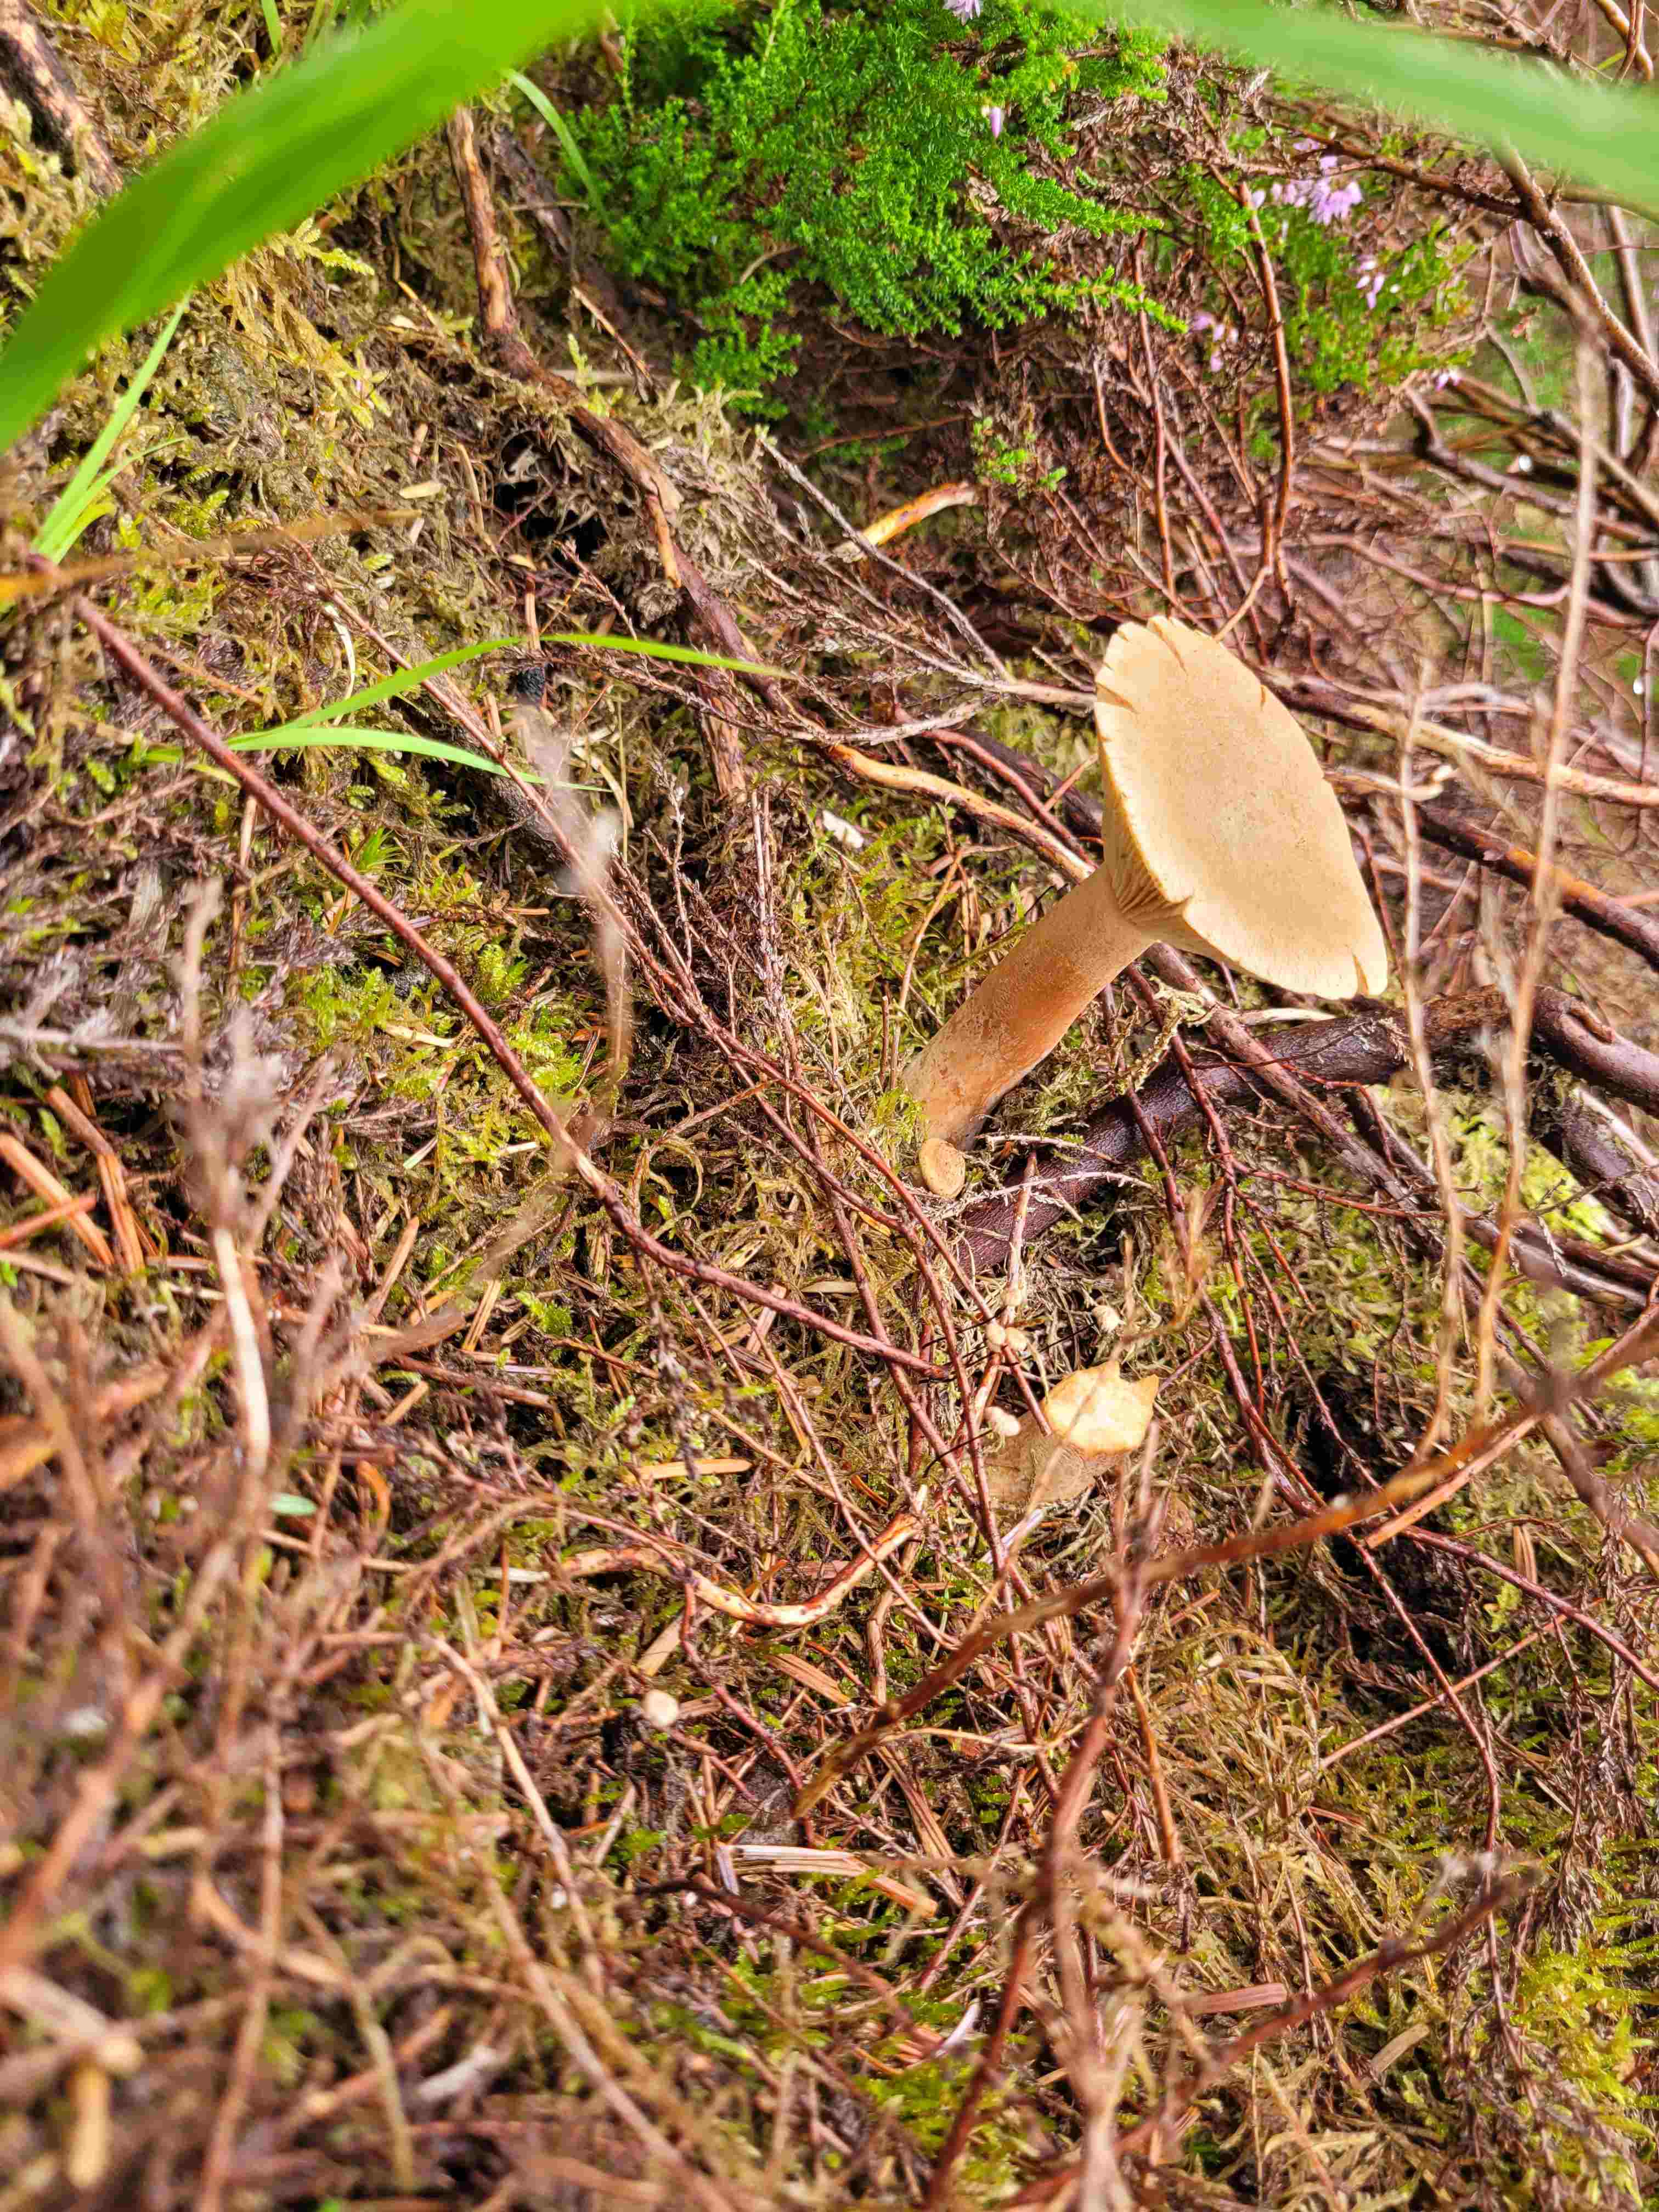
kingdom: Fungi
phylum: Basidiomycota
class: Agaricomycetes
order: Russulales
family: Russulaceae
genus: Lactarius
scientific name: Lactarius helvus
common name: mose-mælkehat
